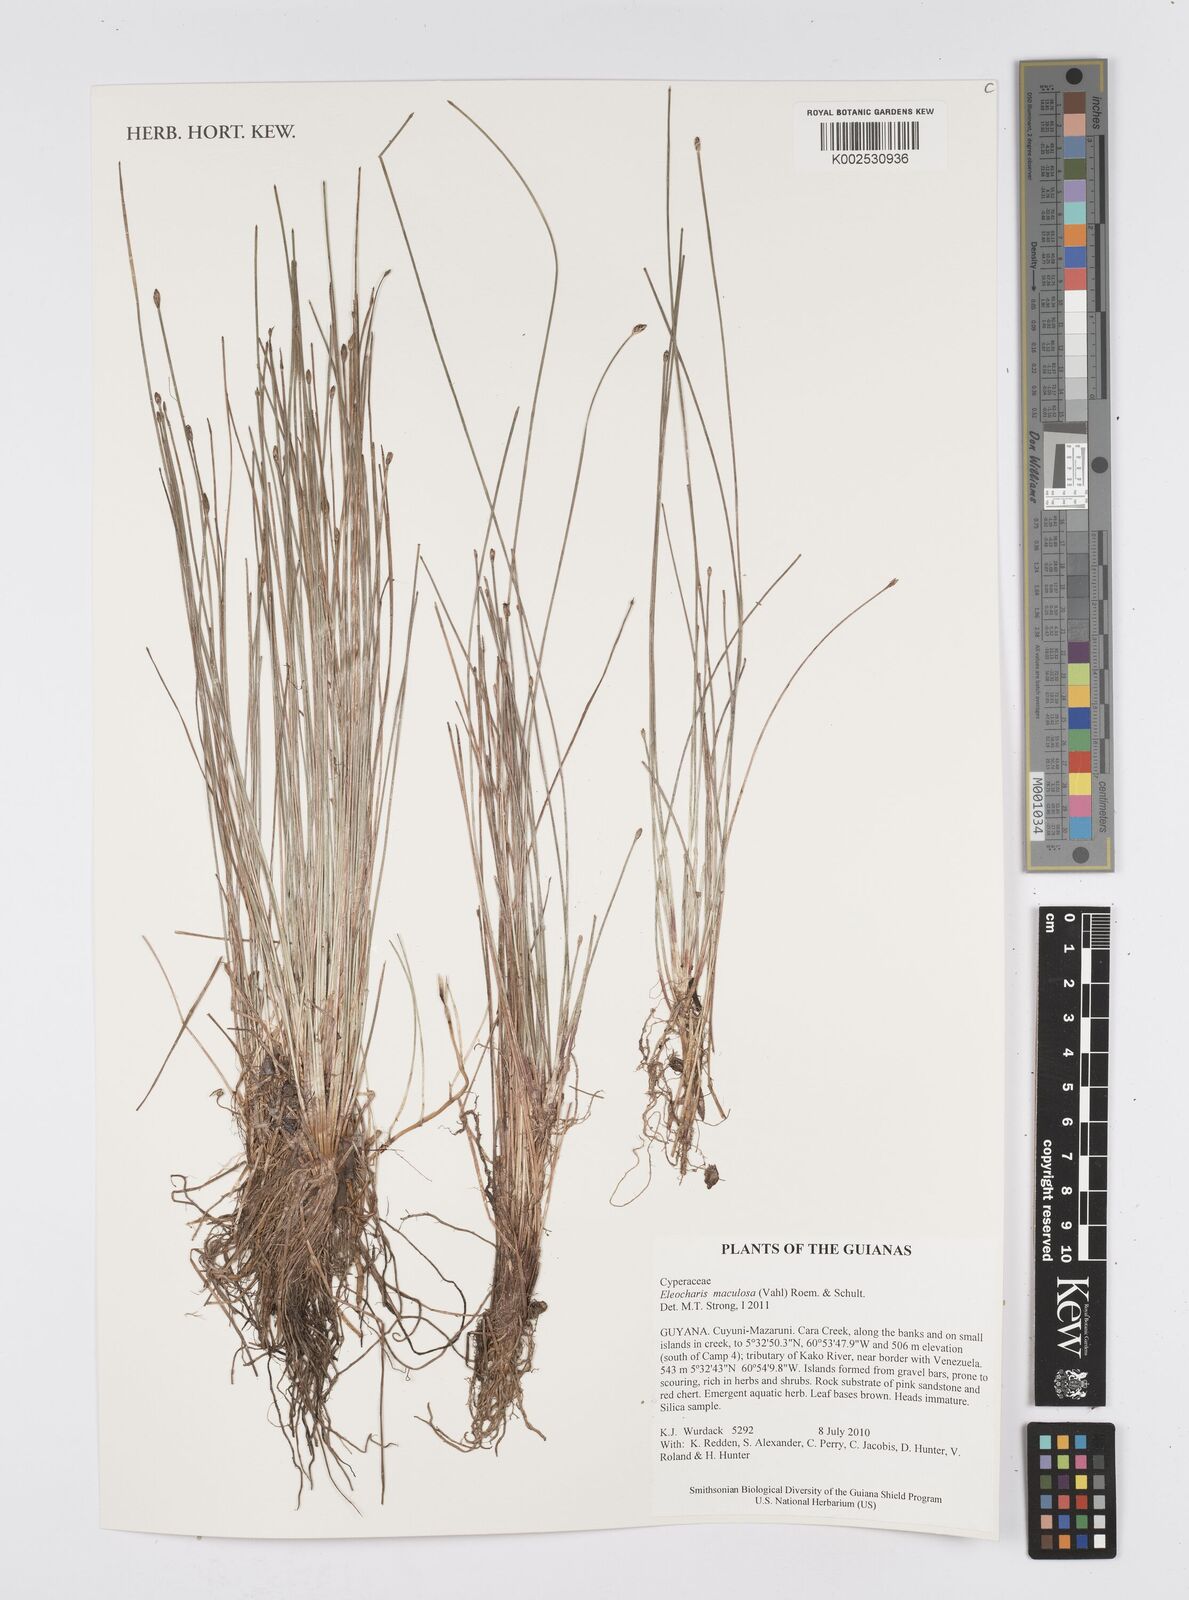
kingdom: Plantae
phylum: Tracheophyta
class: Liliopsida
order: Poales
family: Cyperaceae
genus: Eleocharis
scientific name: Eleocharis maculosa
